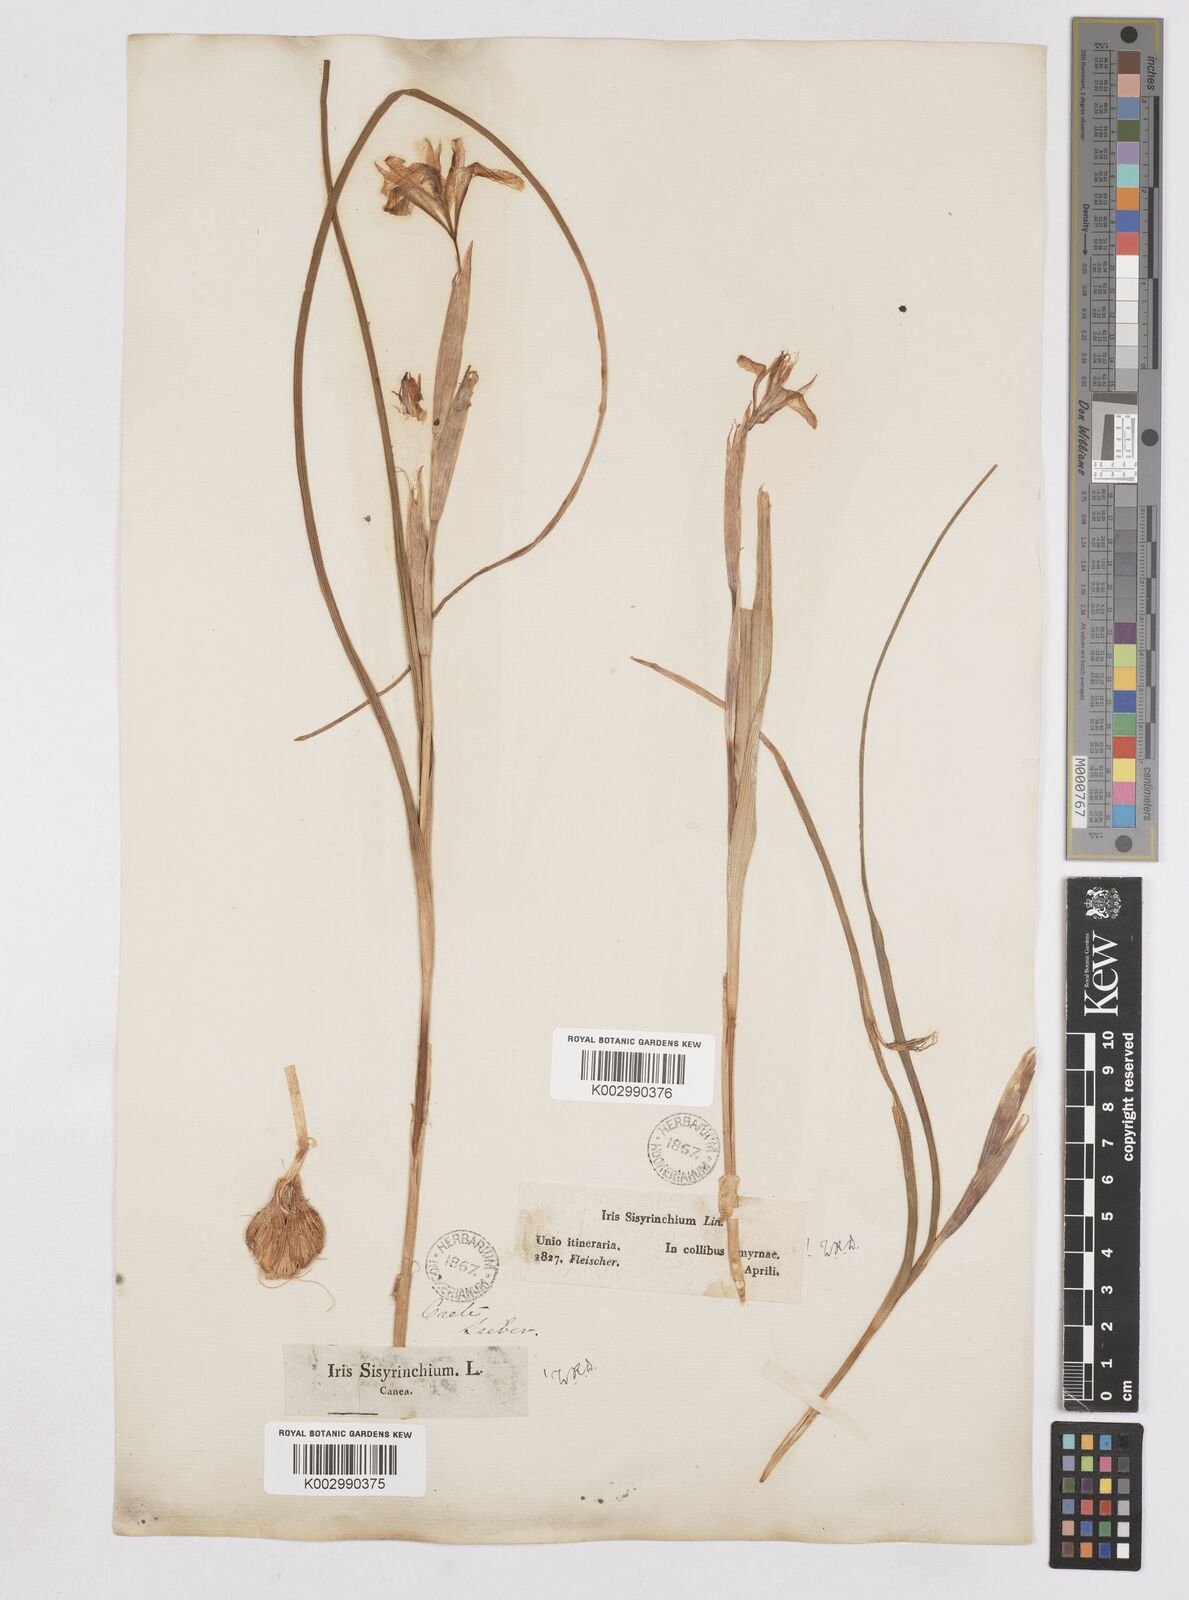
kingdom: Plantae
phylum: Tracheophyta
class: Liliopsida
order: Asparagales
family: Iridaceae
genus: Moraea
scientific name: Moraea sisyrinchium
